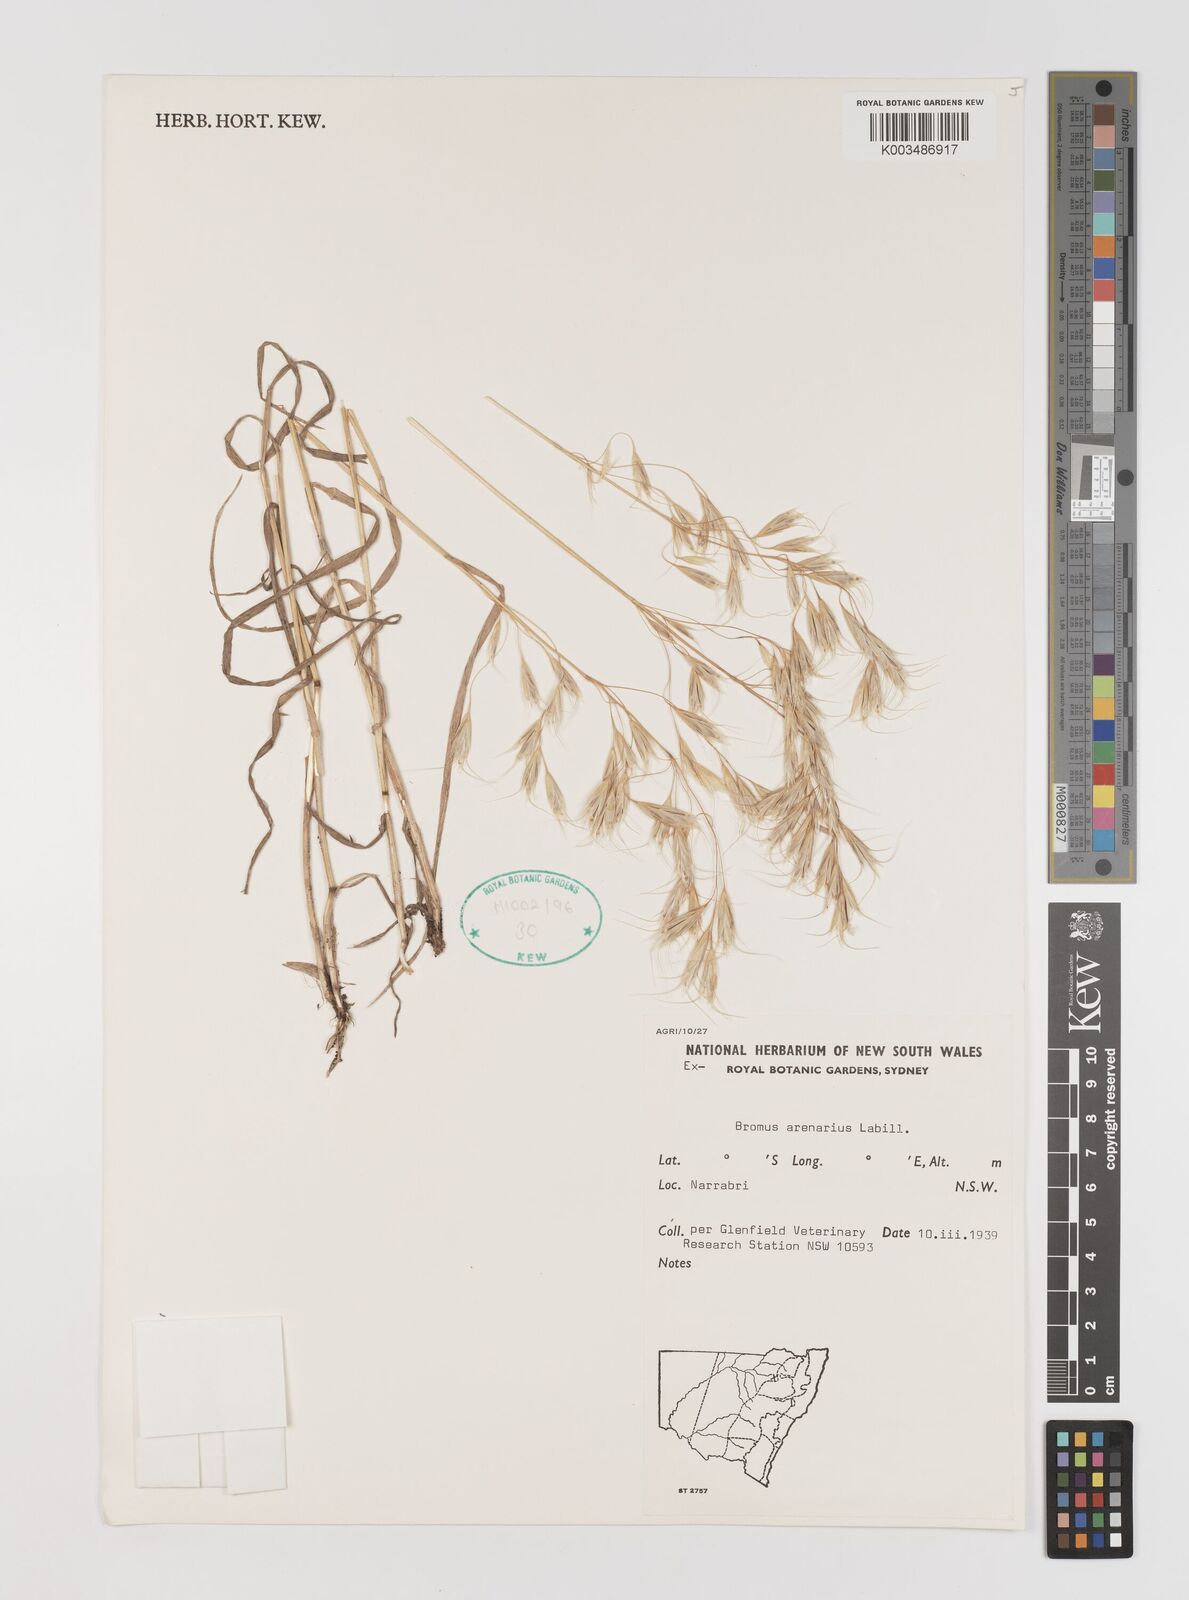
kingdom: Plantae
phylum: Tracheophyta
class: Liliopsida
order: Poales
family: Poaceae
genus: Bromus
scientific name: Bromus arenarius
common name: Australian brome
